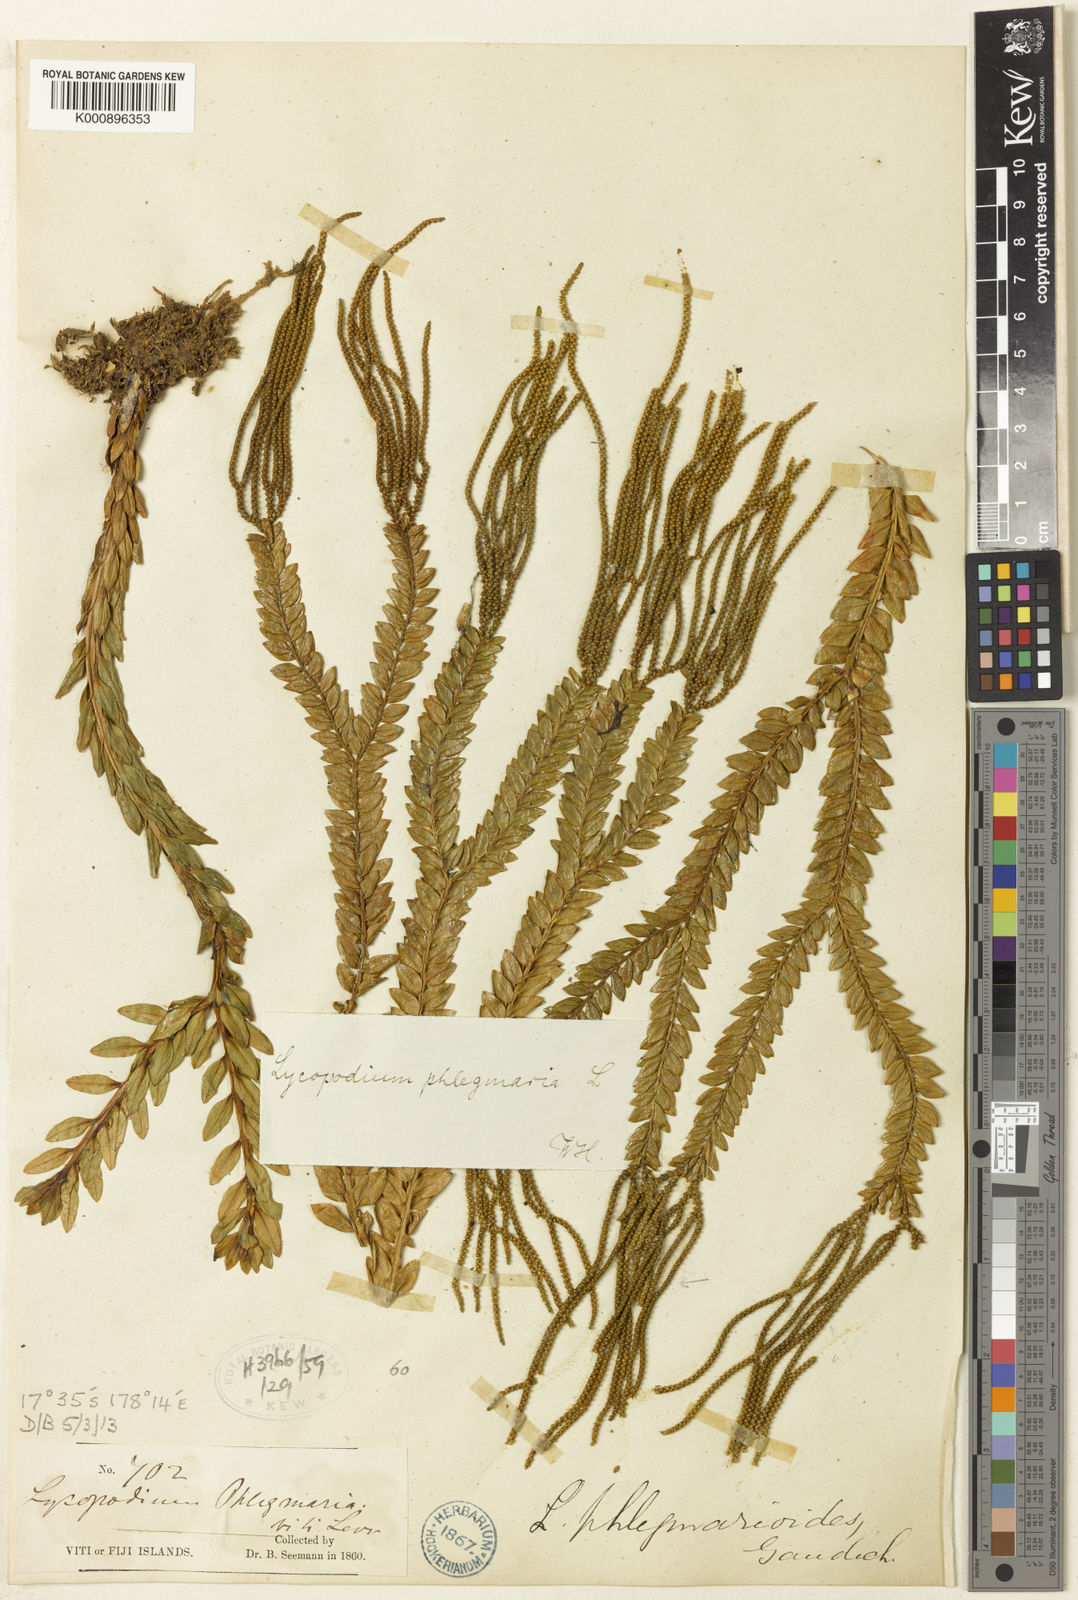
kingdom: Plantae
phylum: Tracheophyta
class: Lycopodiopsida
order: Lycopodiales
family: Lycopodiaceae
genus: Phlegmariurus
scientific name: Phlegmariurus phlegmarioides
